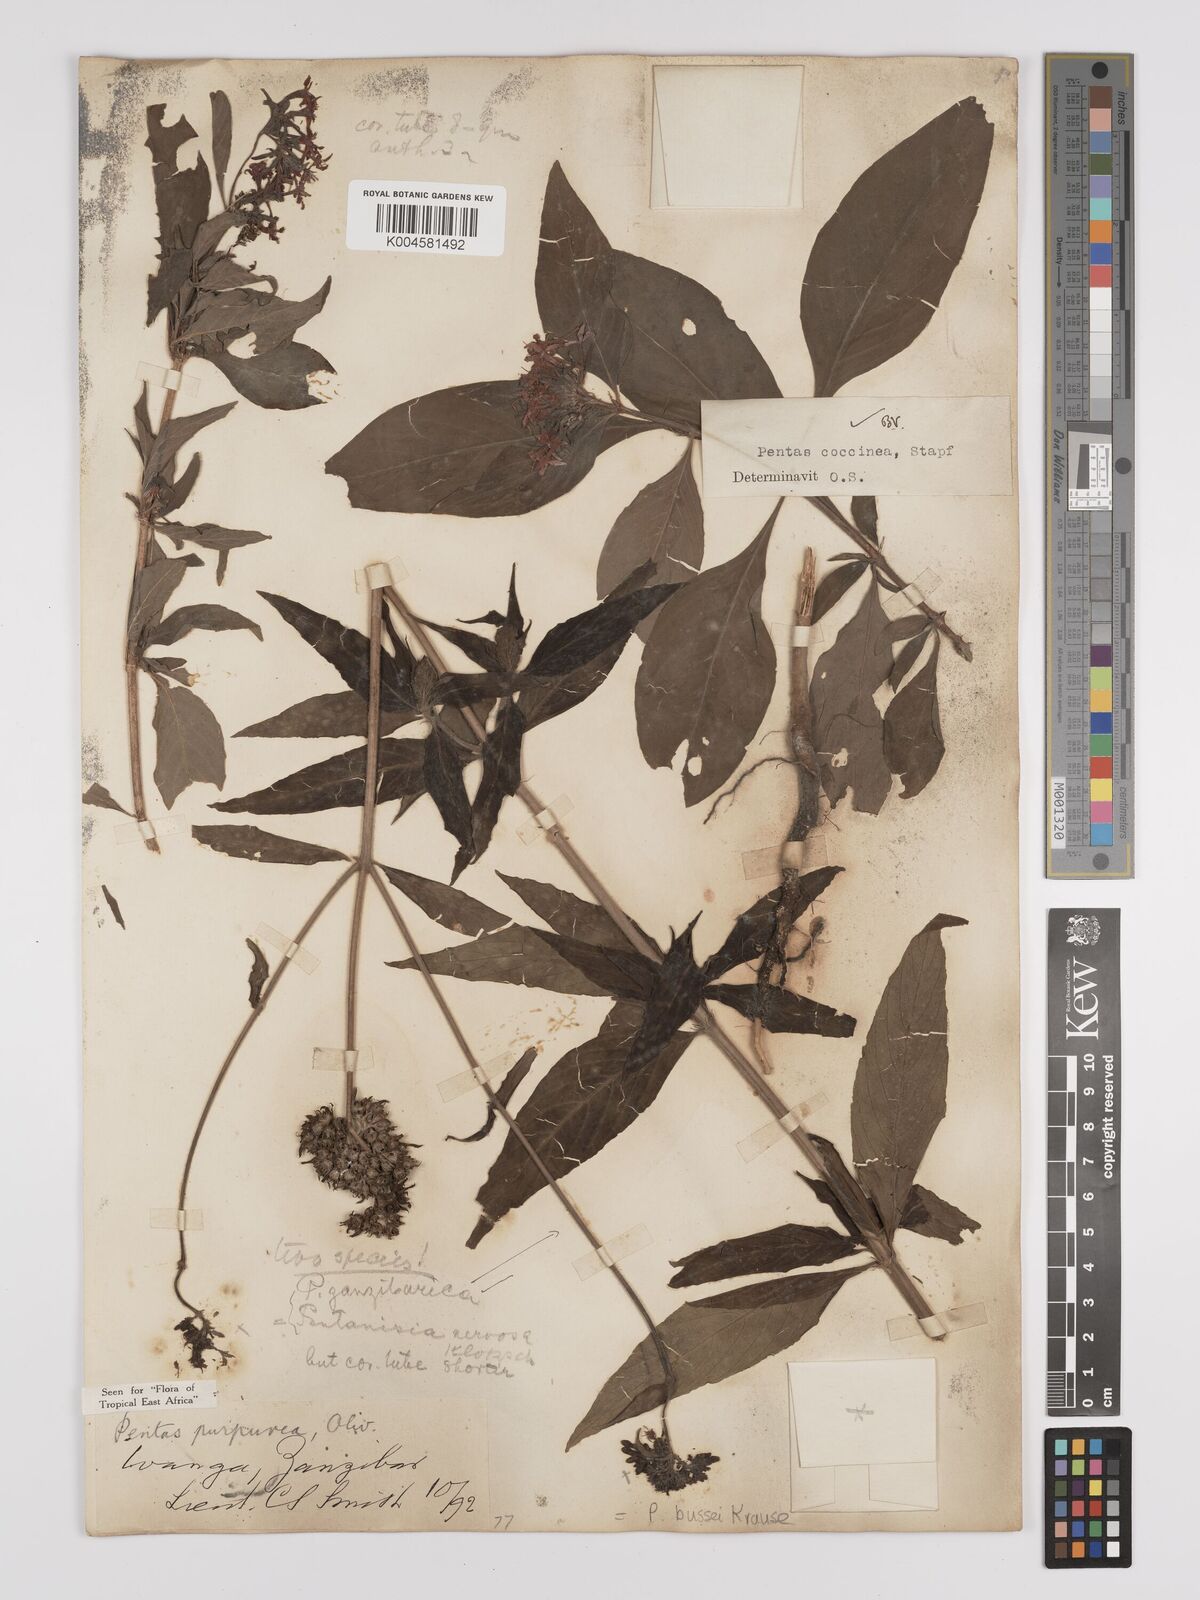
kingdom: Plantae
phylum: Tracheophyta
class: Magnoliopsida
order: Gentianales
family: Rubiaceae
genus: Rhodopentas
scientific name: Rhodopentas bussei
